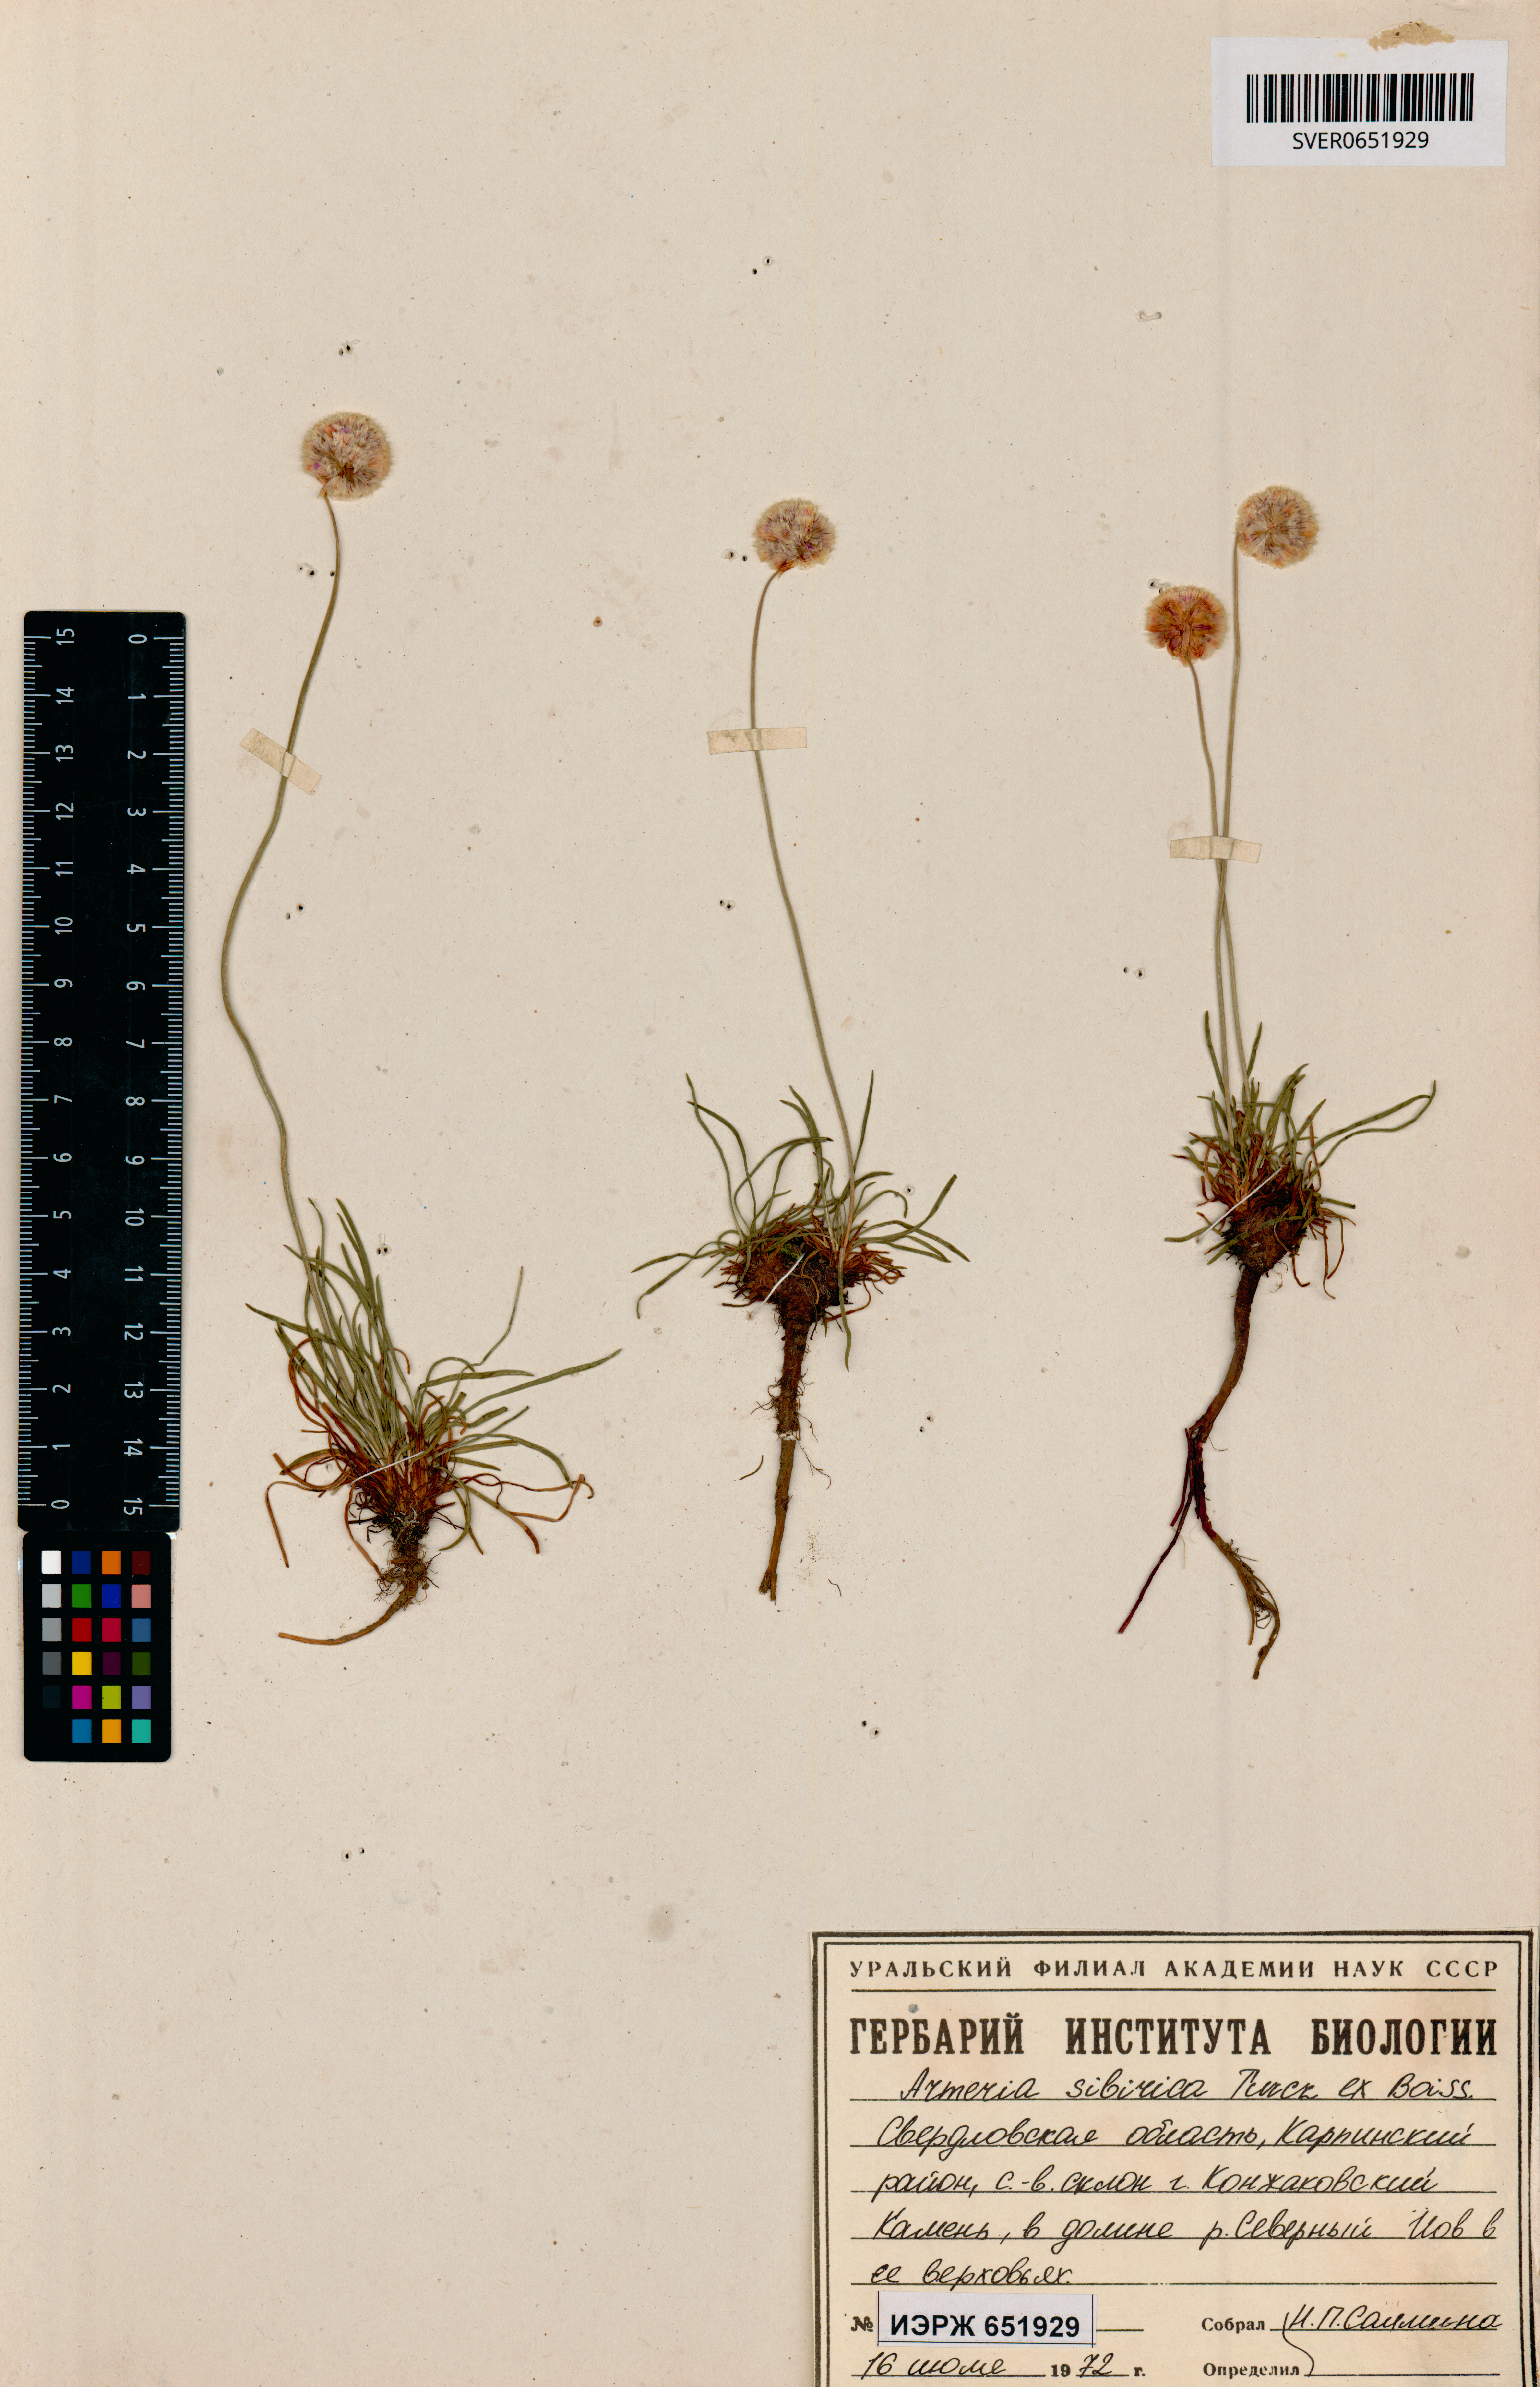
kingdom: Plantae
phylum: Tracheophyta
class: Magnoliopsida
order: Caryophyllales
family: Plumbaginaceae
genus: Armeria
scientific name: Armeria maritima
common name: Thrift
